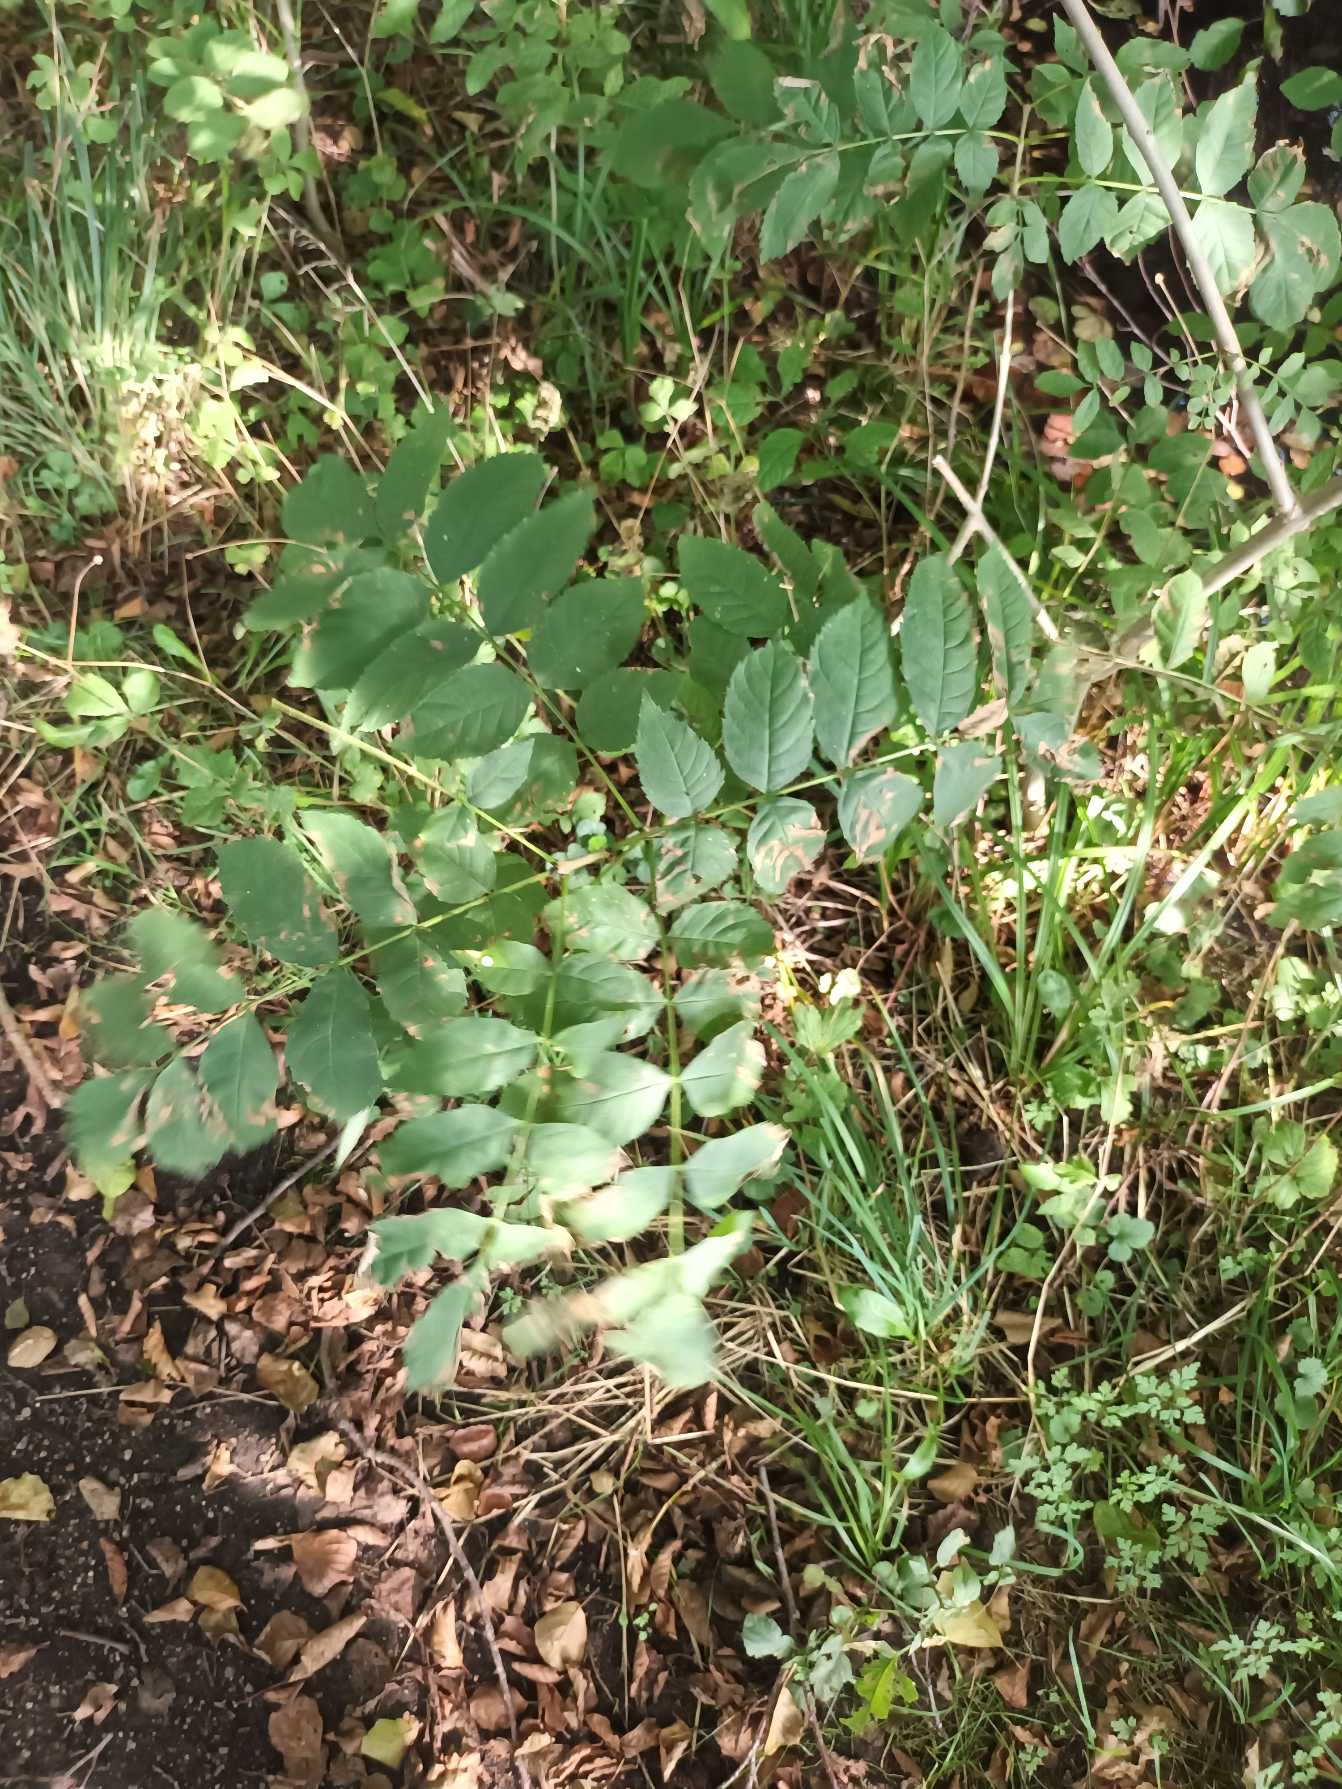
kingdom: Plantae
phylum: Tracheophyta
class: Magnoliopsida
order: Lamiales
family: Oleaceae
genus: Fraxinus
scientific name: Fraxinus excelsior
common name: Ask
